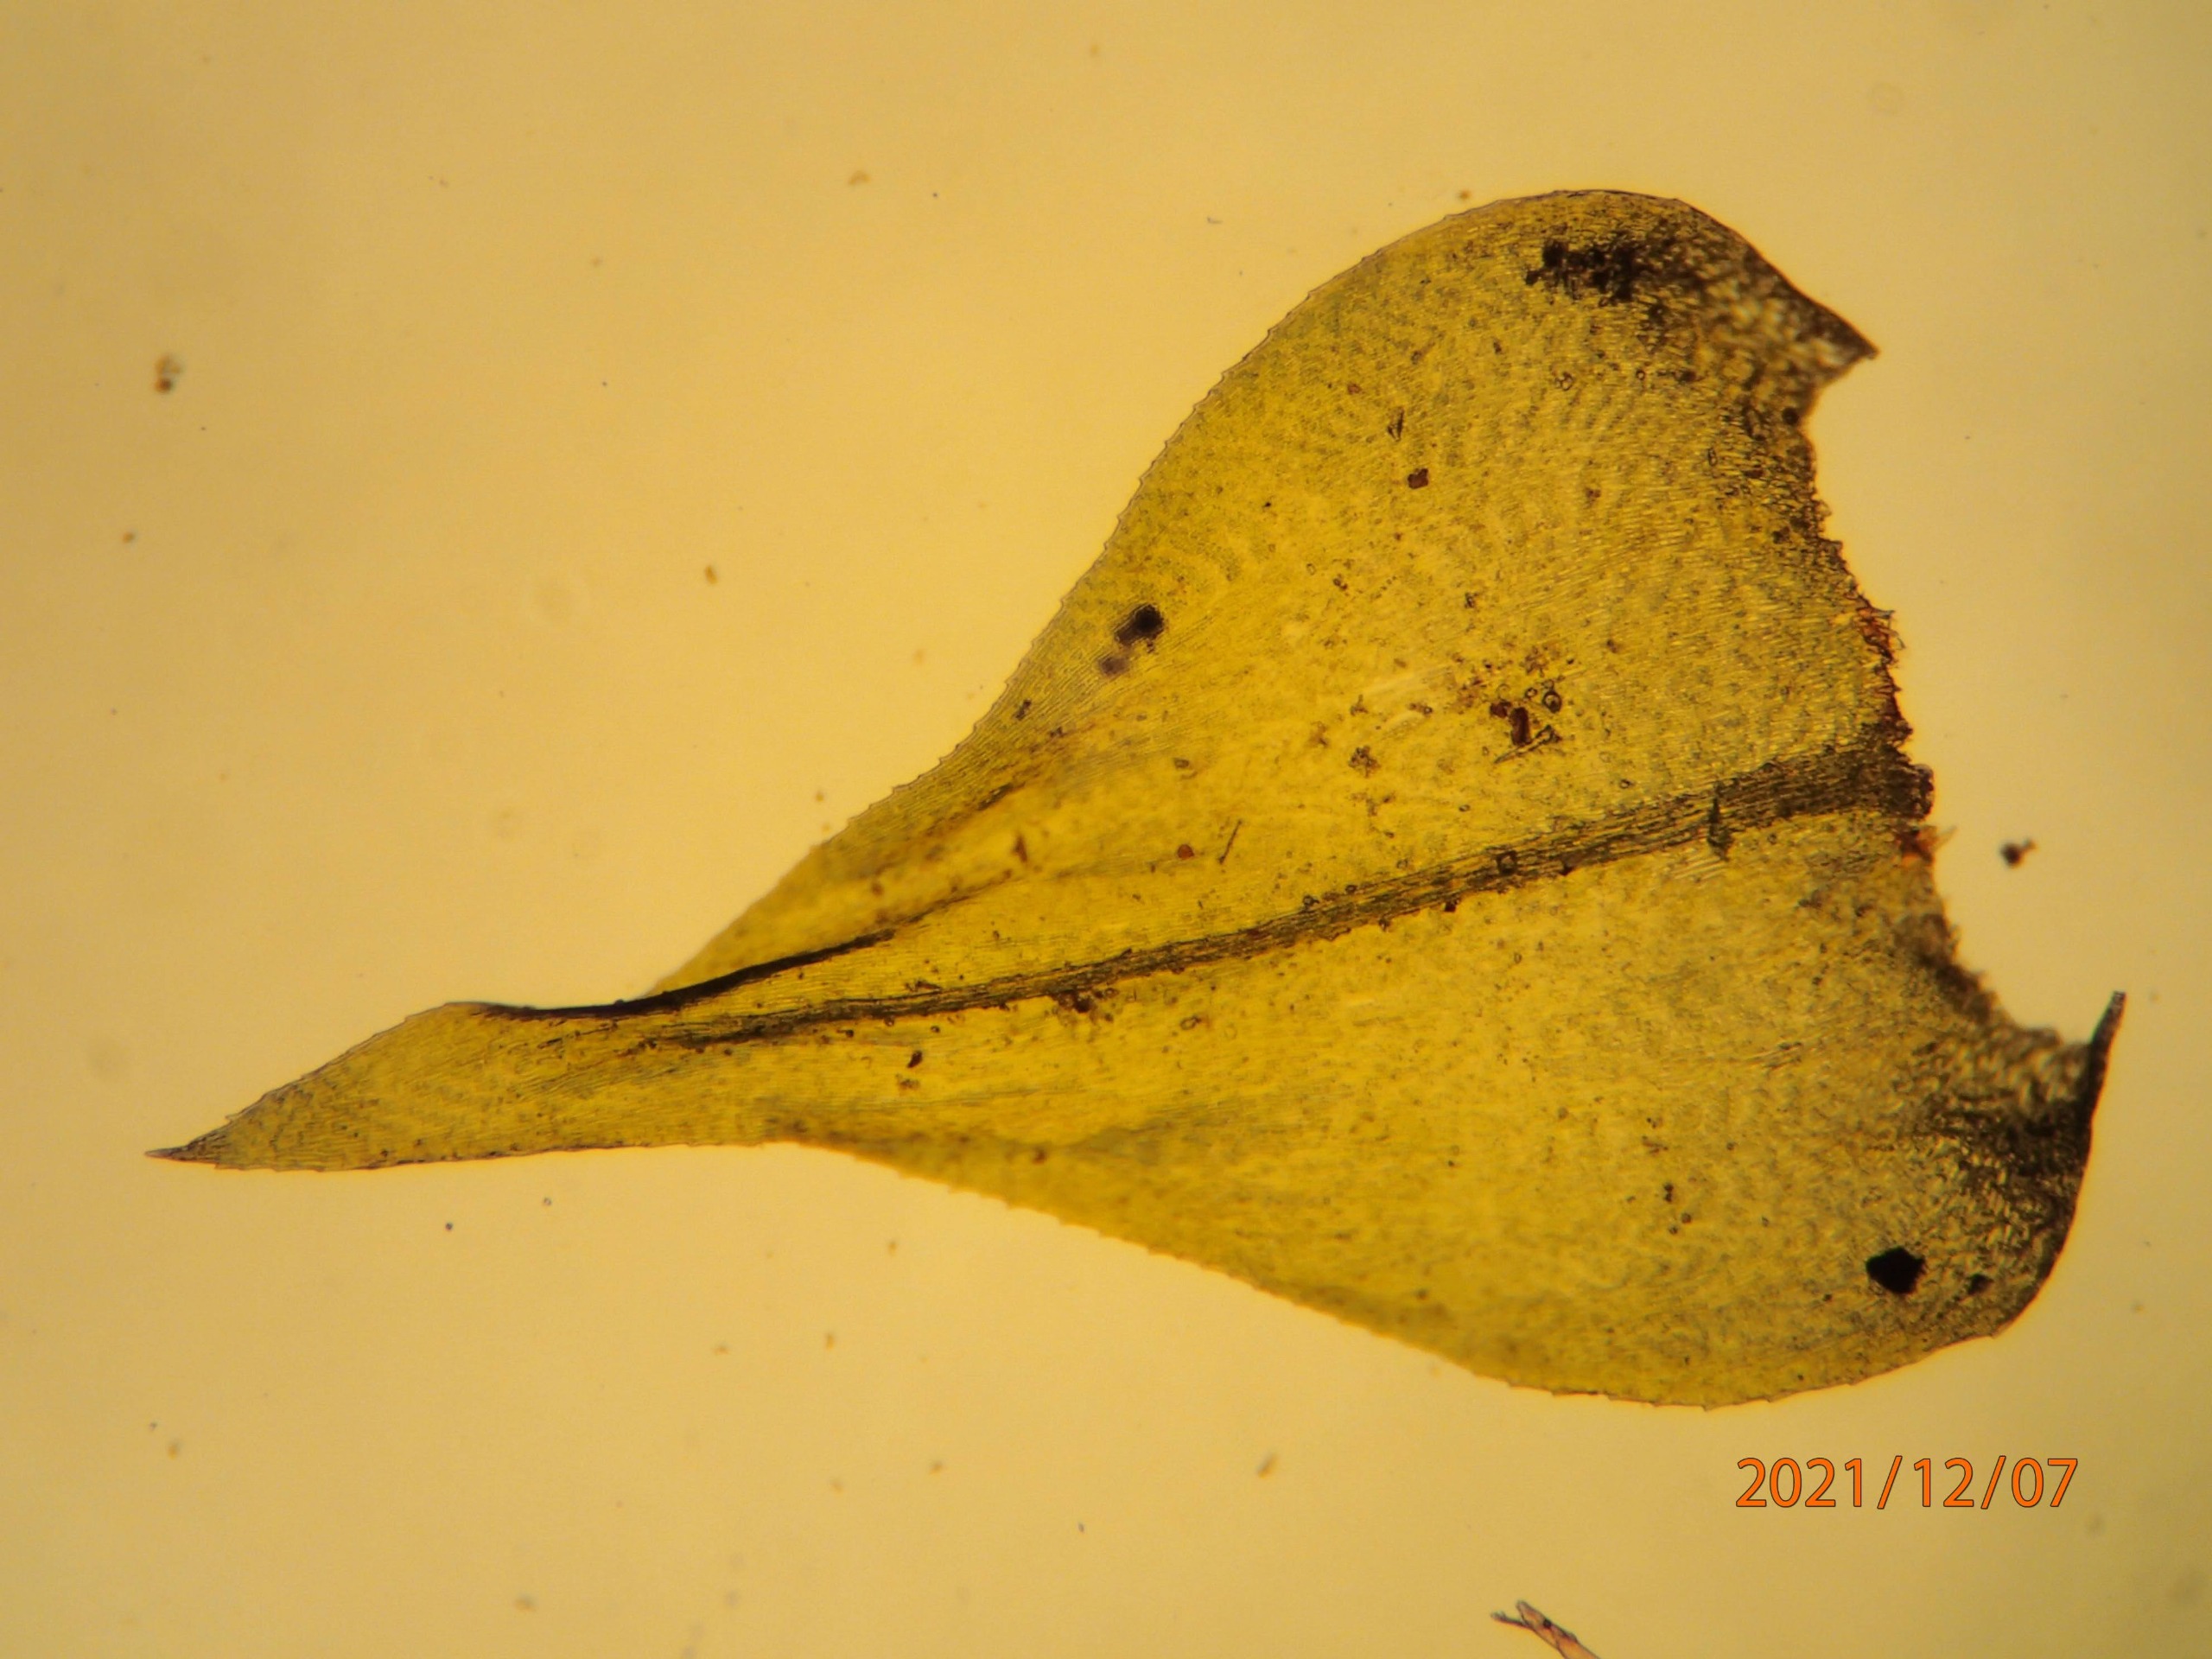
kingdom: Plantae
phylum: Bryophyta
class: Bryopsida
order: Hypnales
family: Brachytheciaceae
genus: Eurhynchium
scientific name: Eurhynchium striatum
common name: Stribet næbmos
